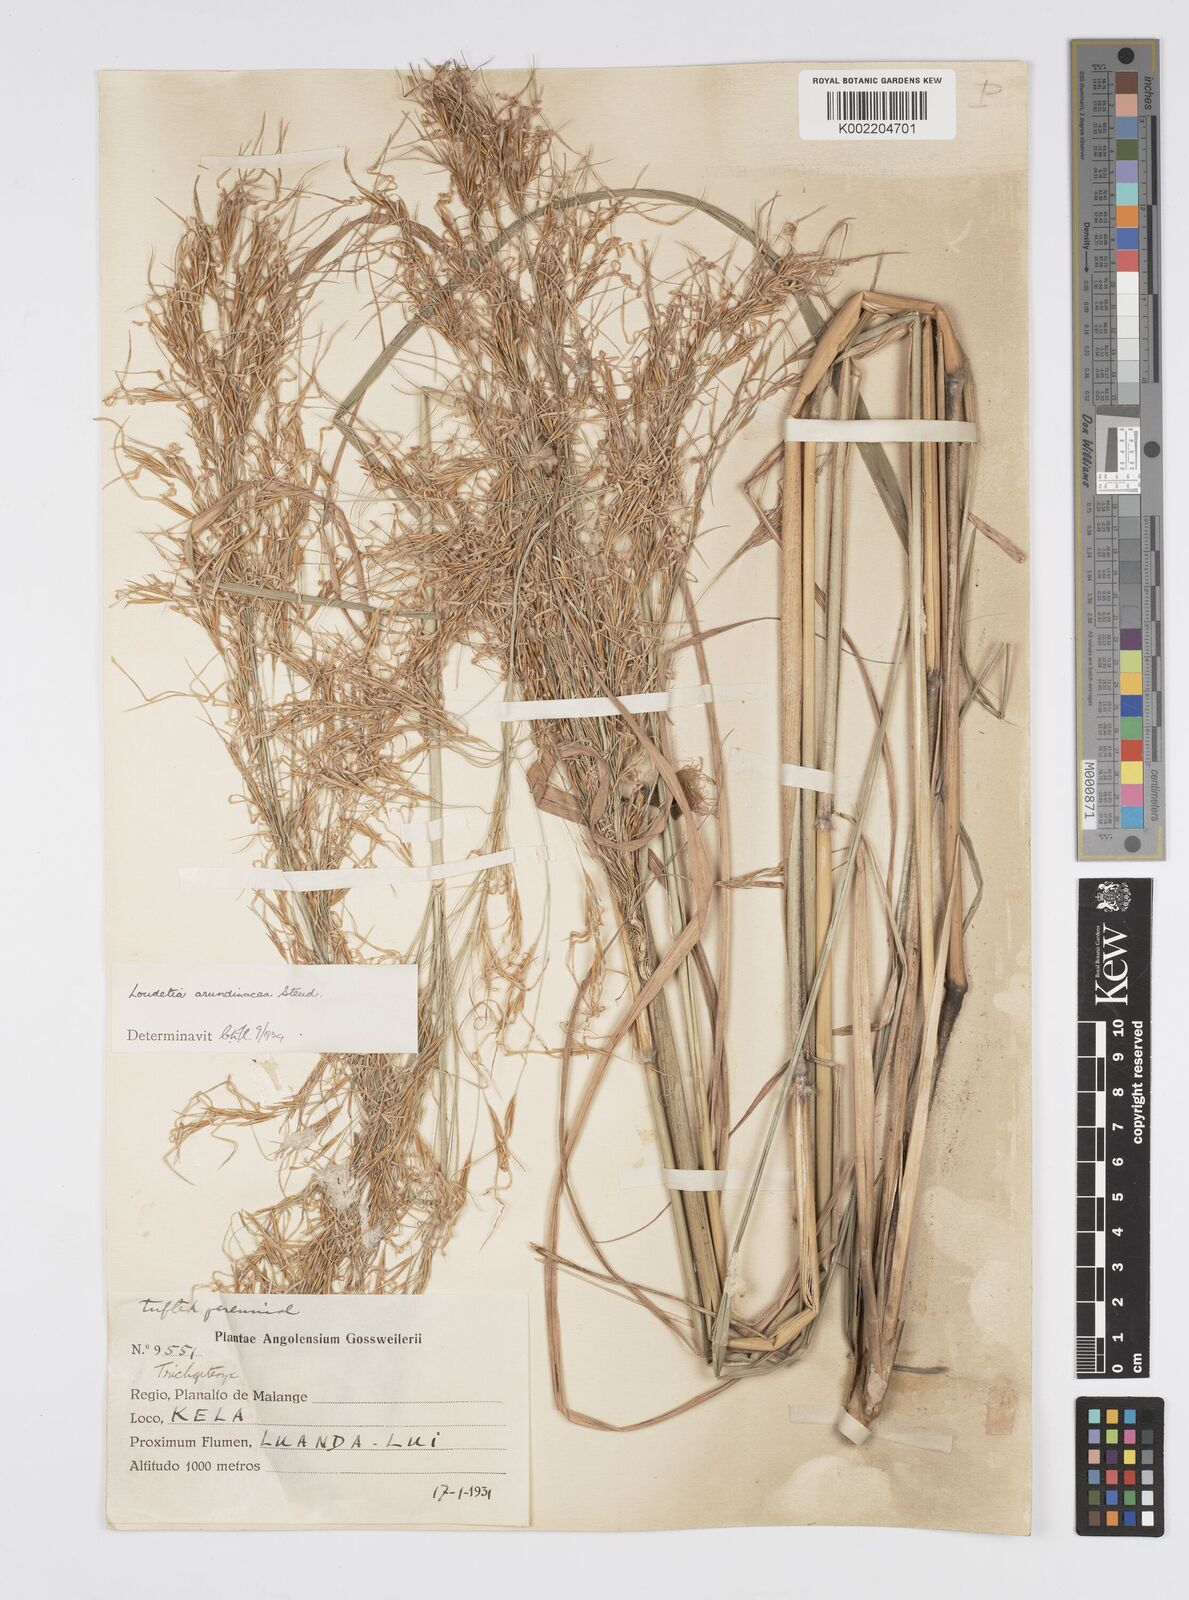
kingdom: Plantae
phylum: Tracheophyta
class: Liliopsida
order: Poales
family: Poaceae
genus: Loudetia
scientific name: Loudetia arundinacea
